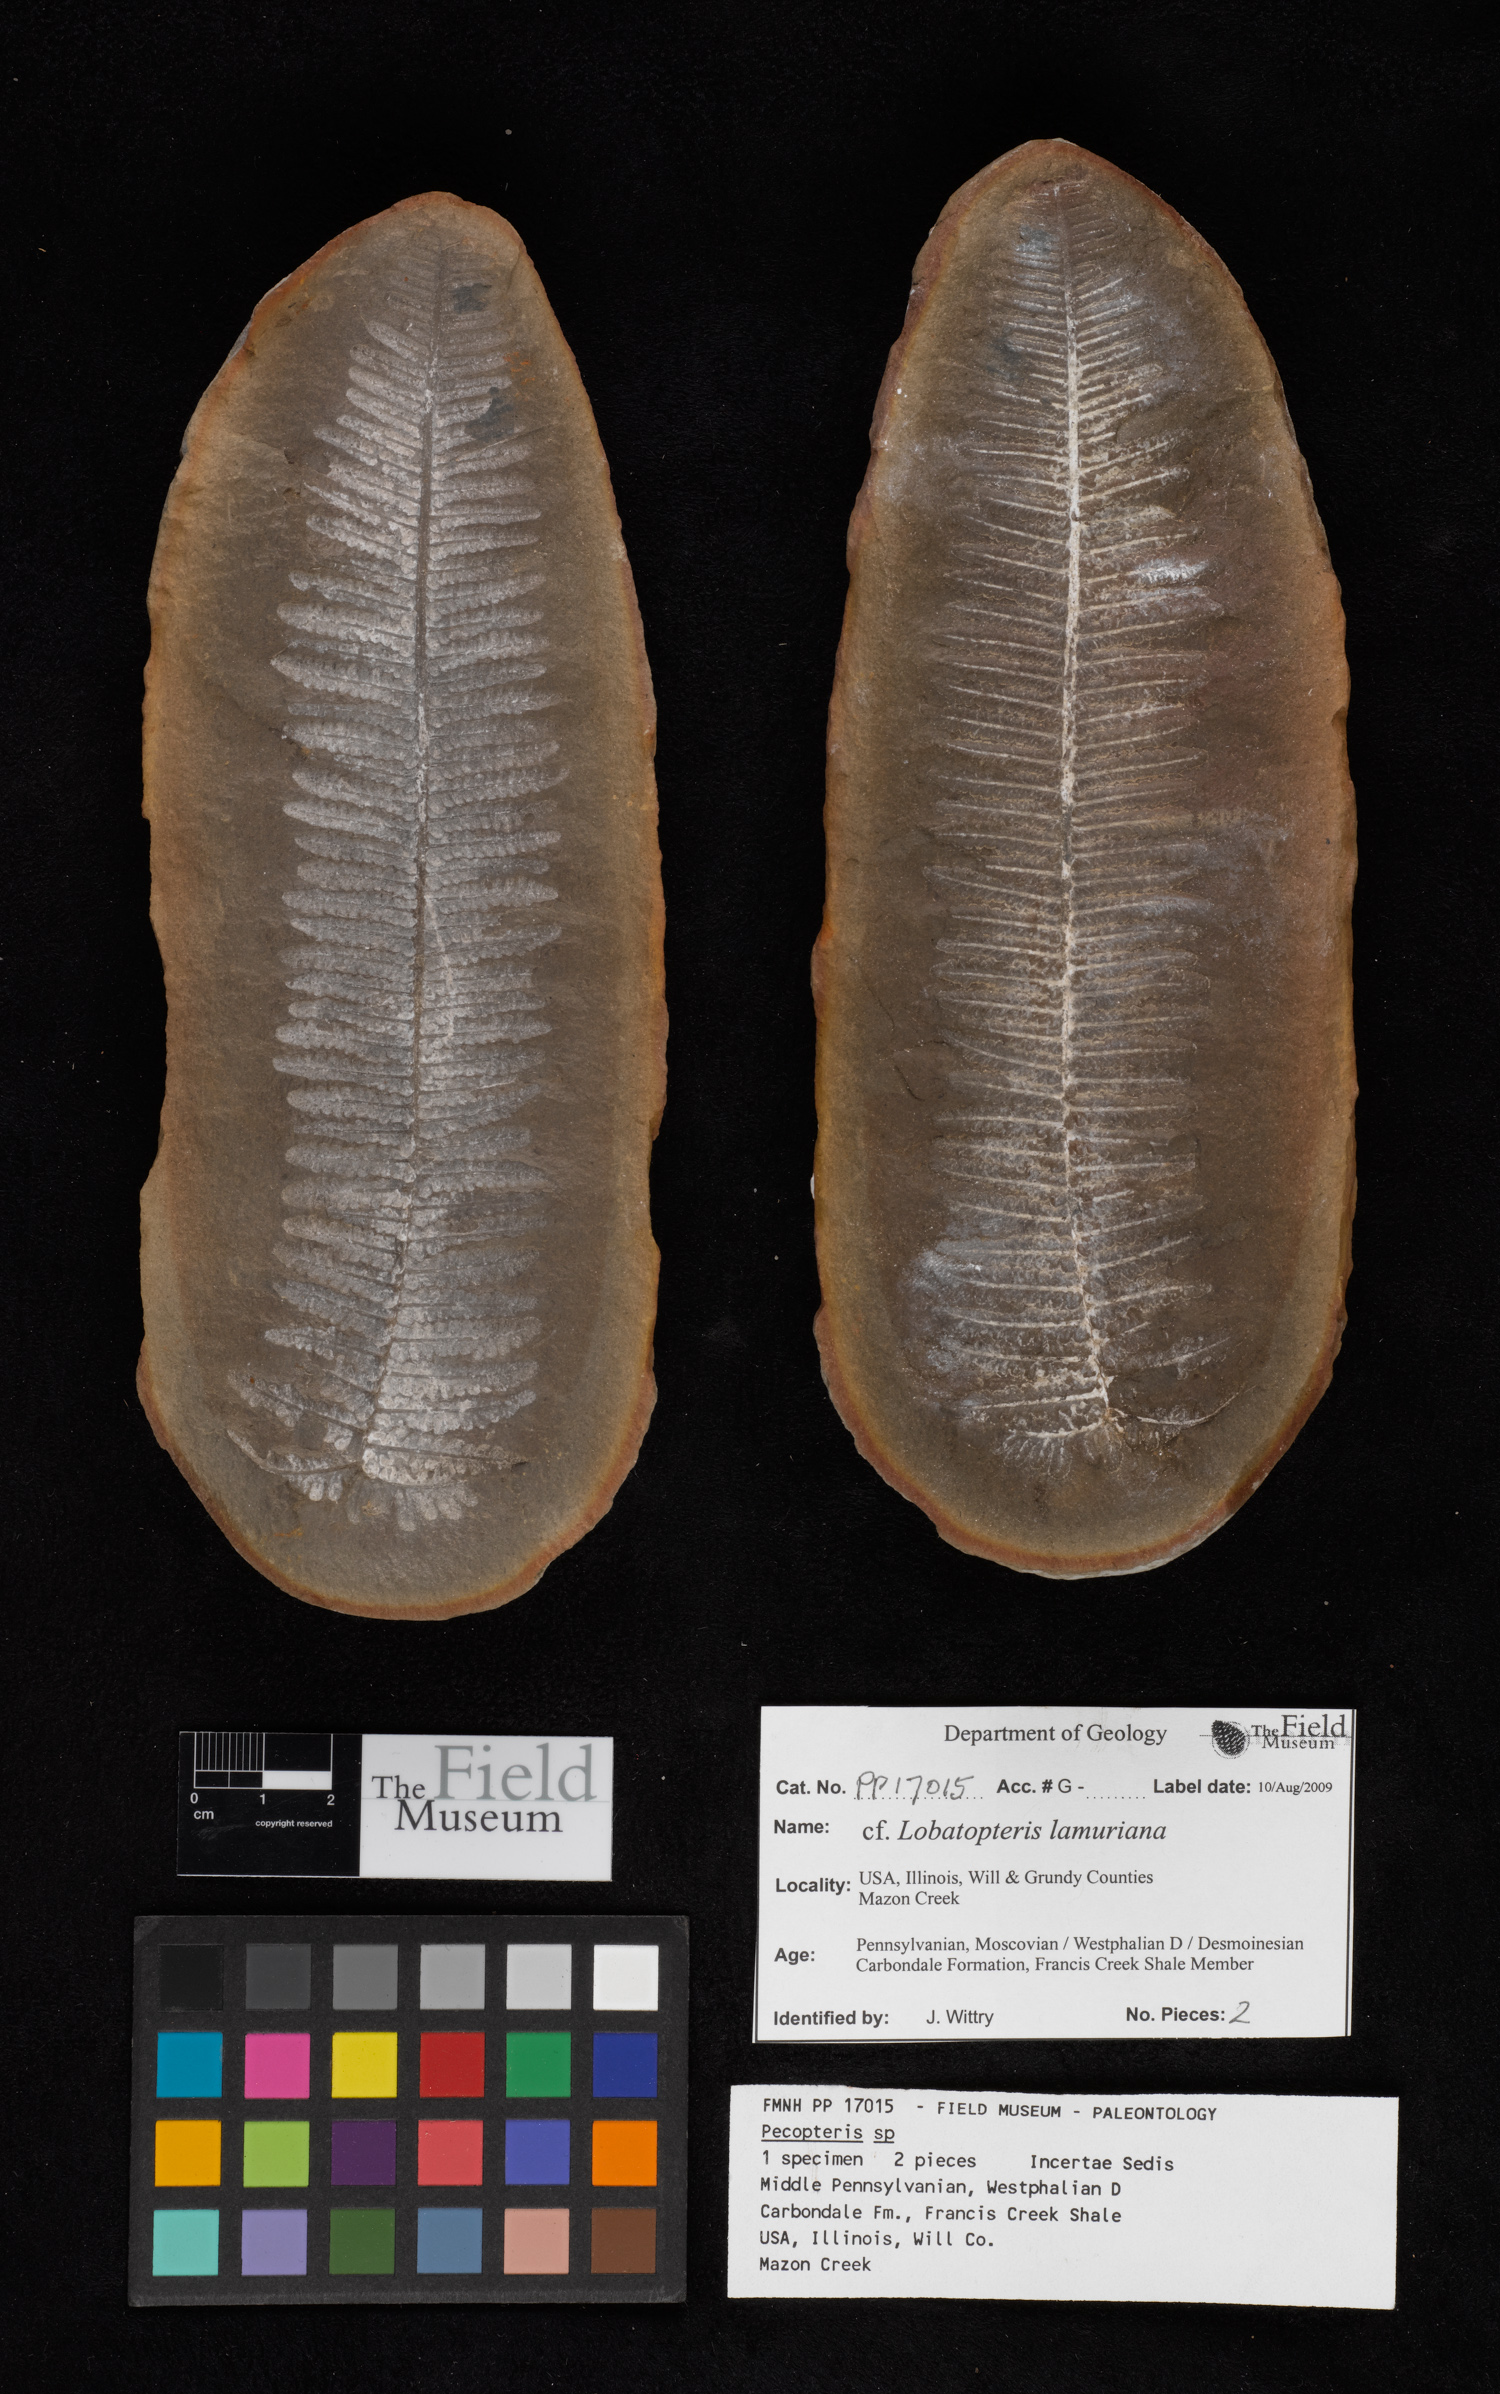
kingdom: Plantae
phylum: Tracheophyta
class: Polypodiopsida
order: Marattiales
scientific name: Marattiales
